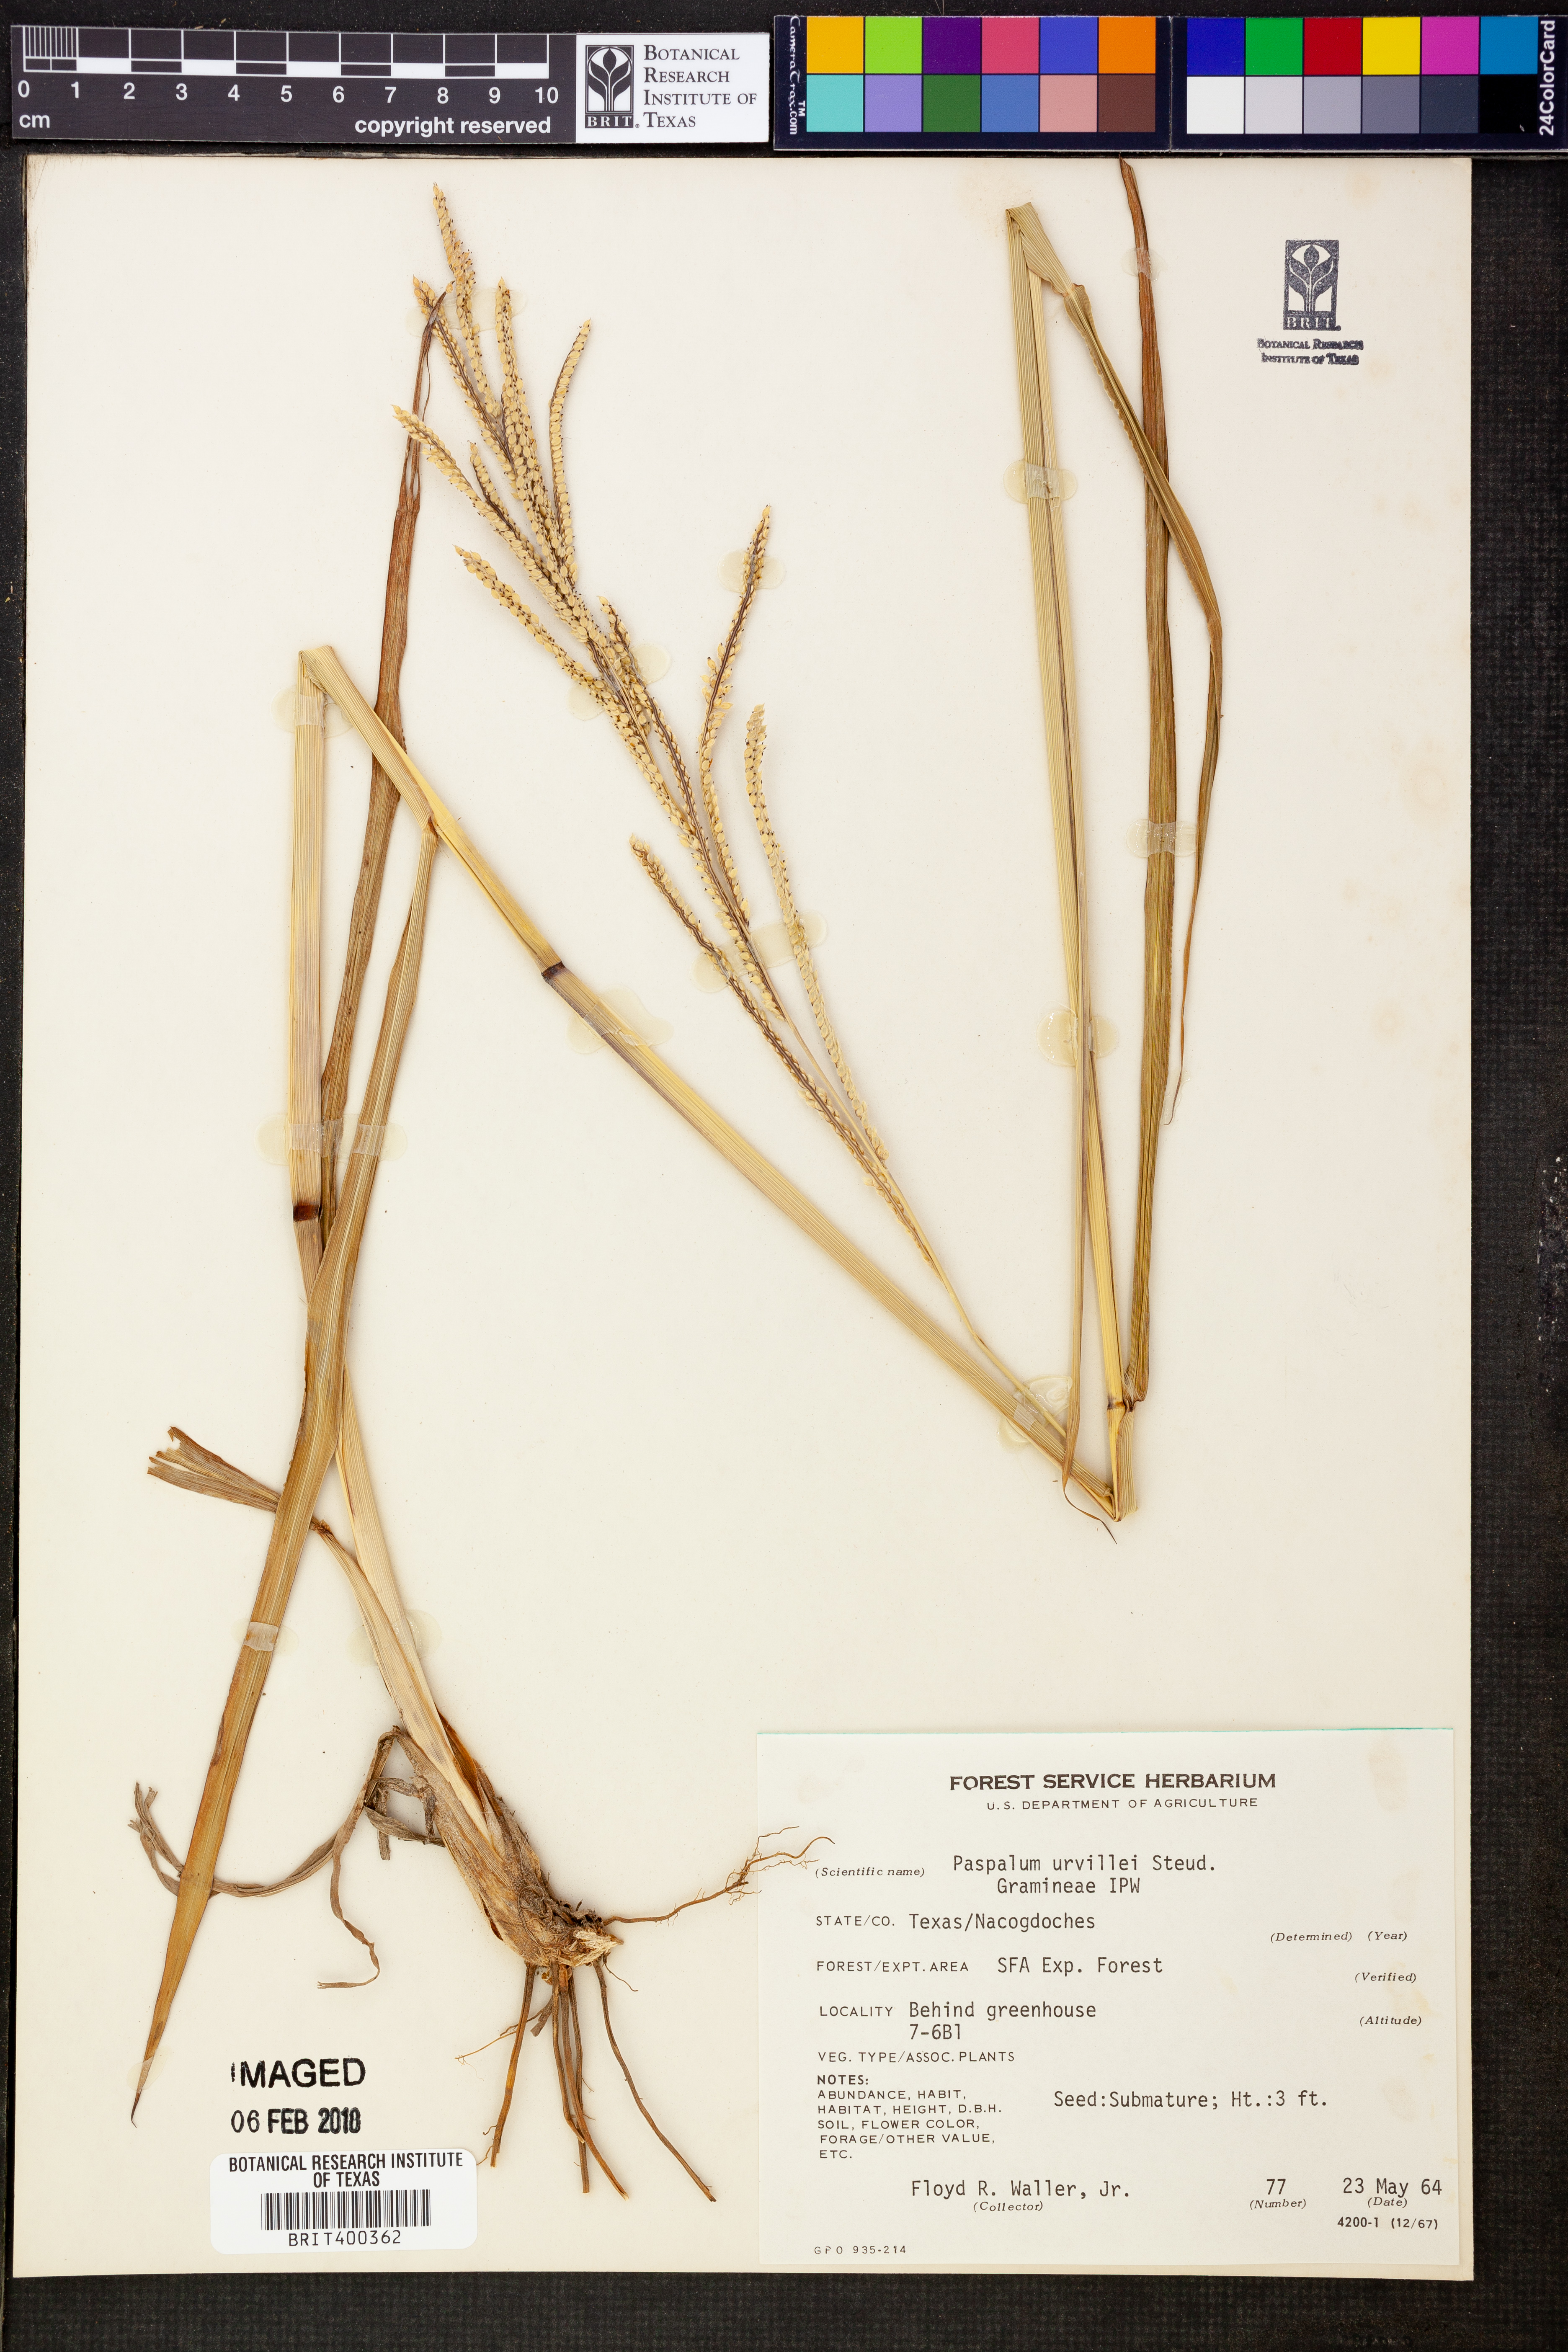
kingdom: Plantae
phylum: Tracheophyta
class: Liliopsida
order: Poales
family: Poaceae
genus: Paspalum
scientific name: Paspalum urvillei
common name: Vasey's grass
